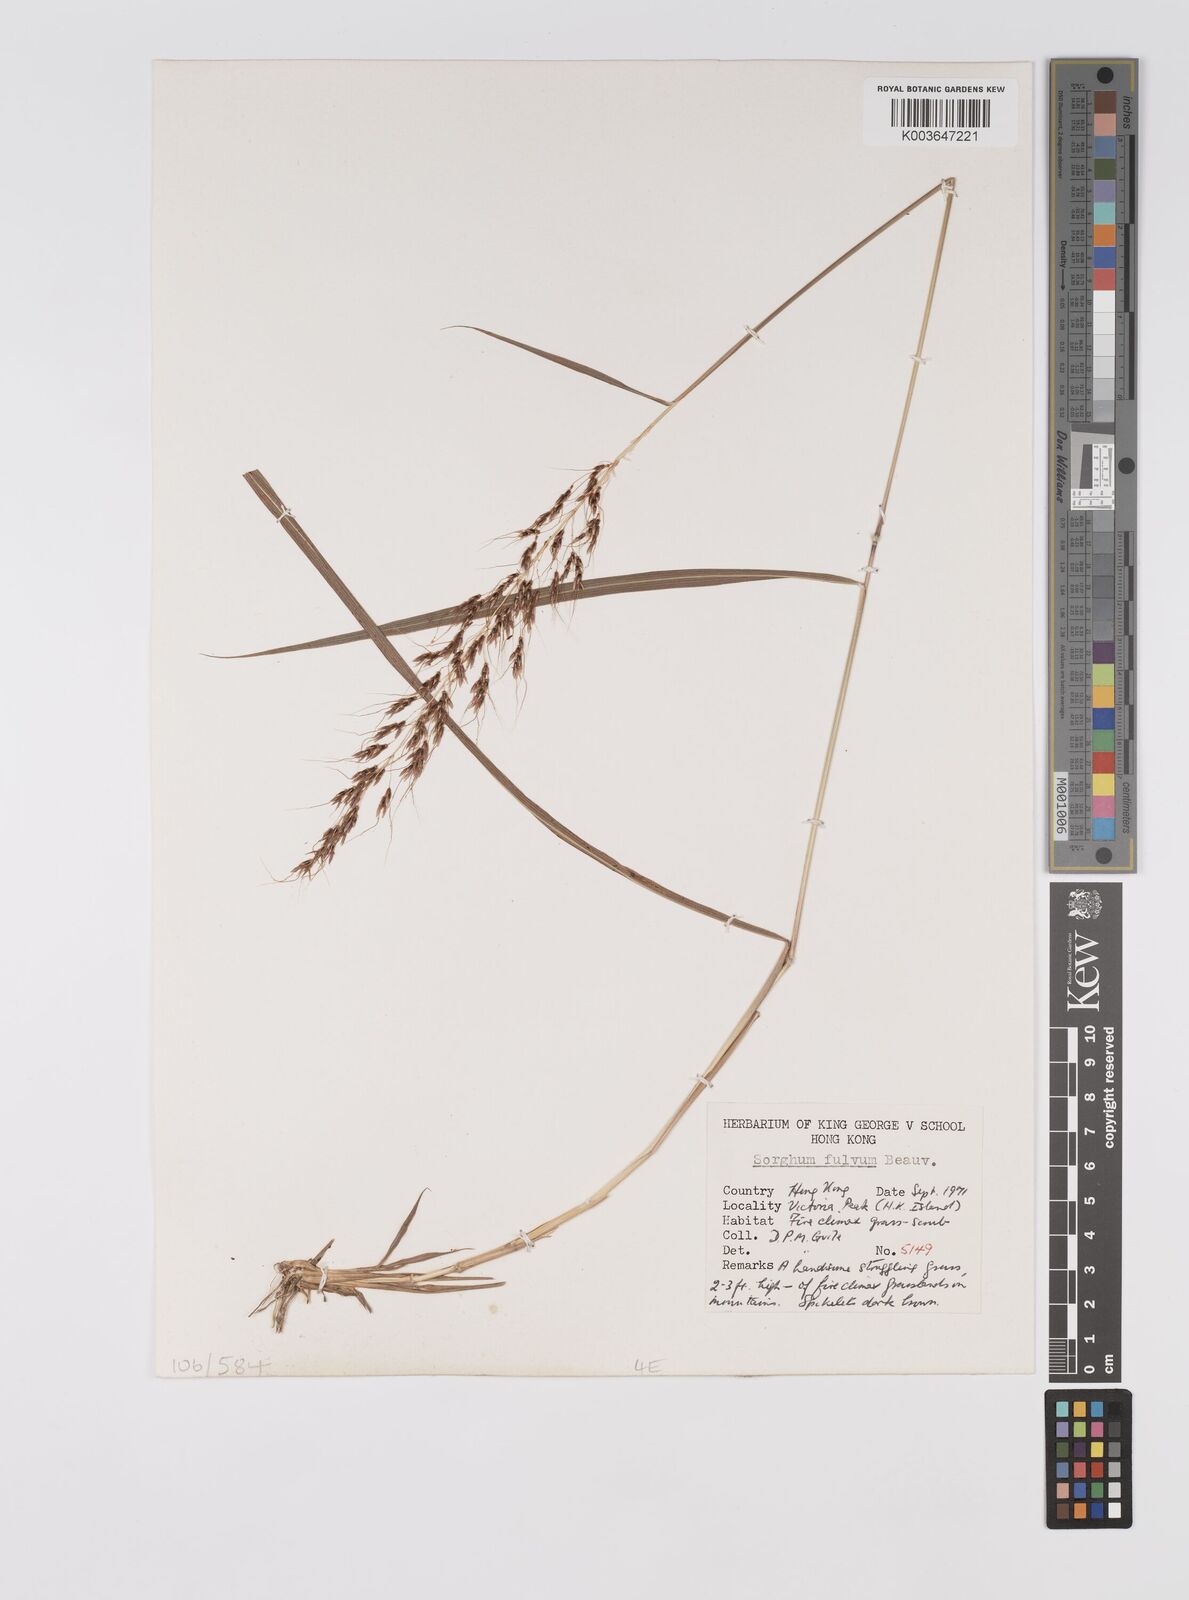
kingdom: Plantae
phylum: Tracheophyta
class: Liliopsida
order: Poales
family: Poaceae
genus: Sorghum
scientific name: Sorghum nitidum
